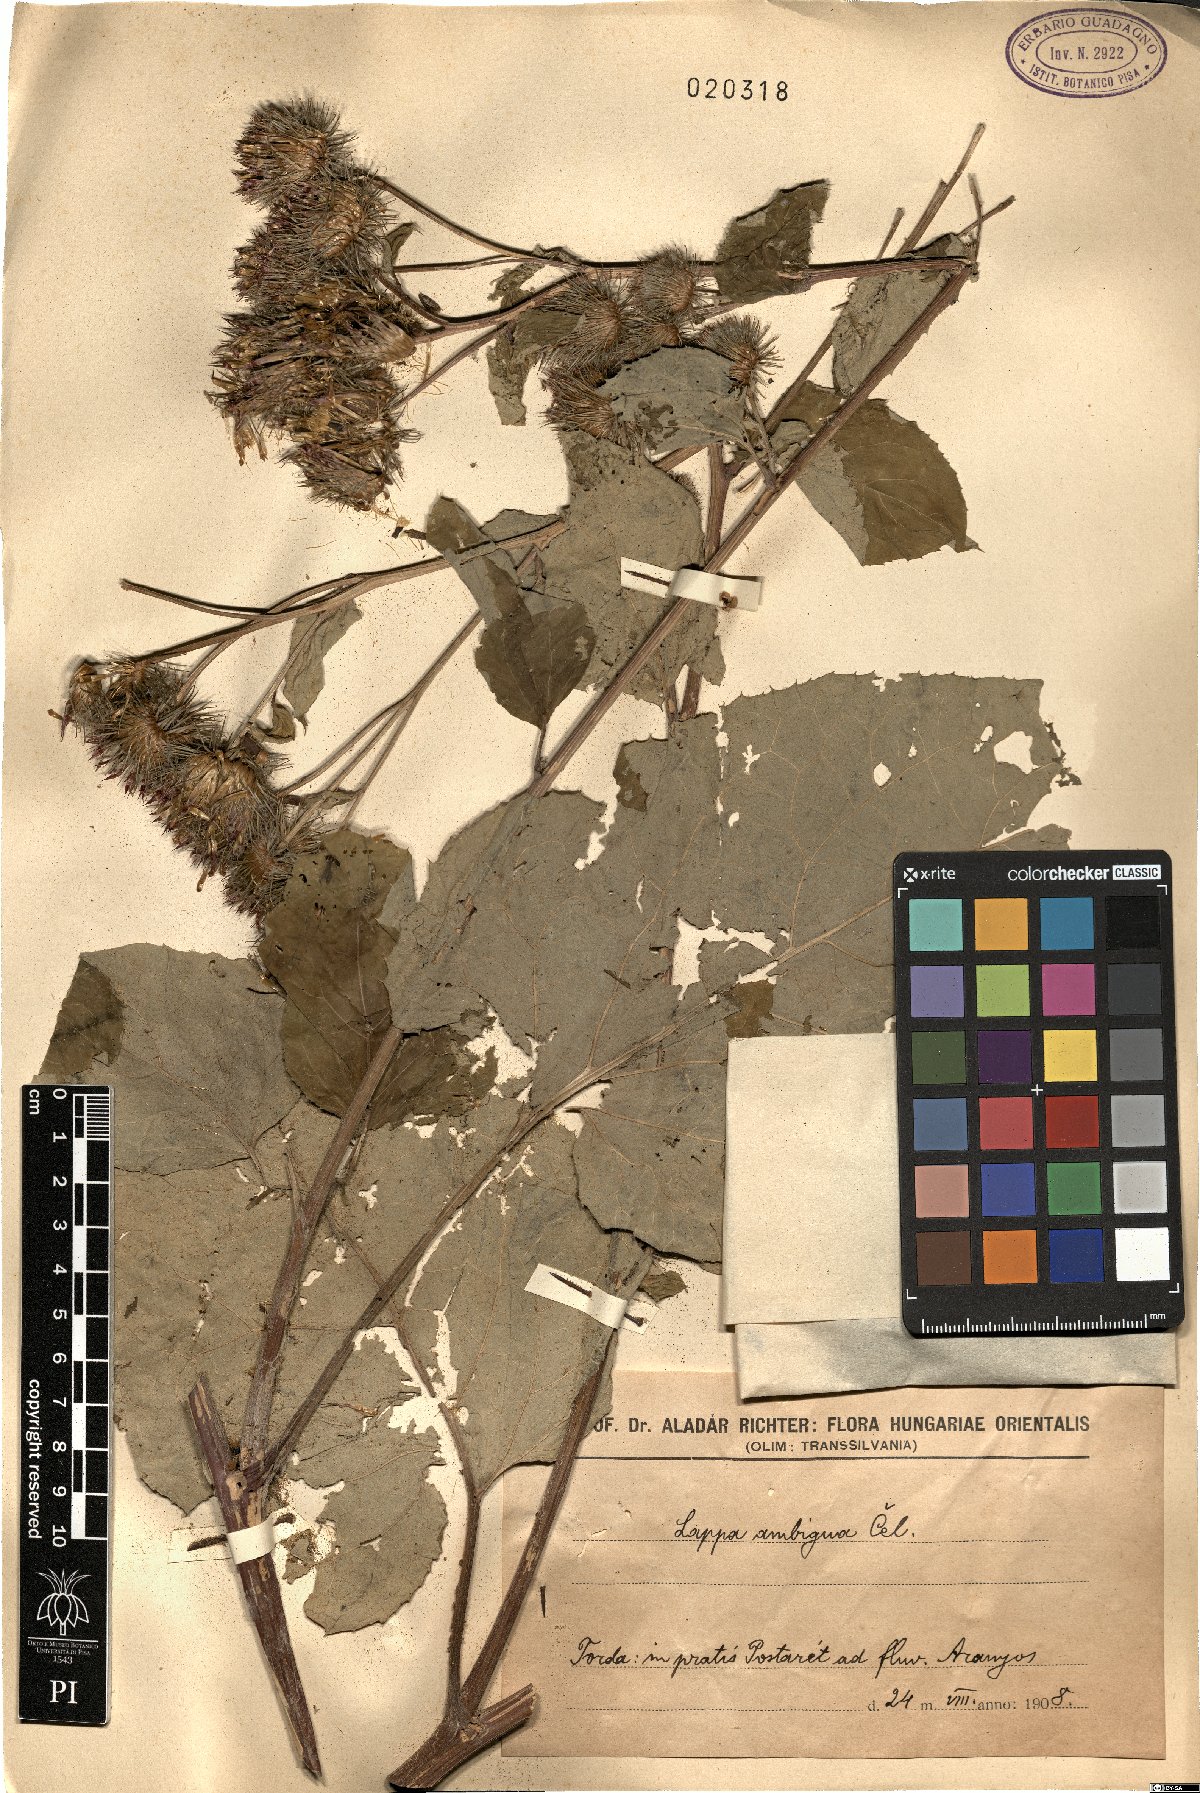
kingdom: Plantae
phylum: Tracheophyta
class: Magnoliopsida
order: Asterales
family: Asteraceae
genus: Arctium
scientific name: Arctium Lappa ambigua
